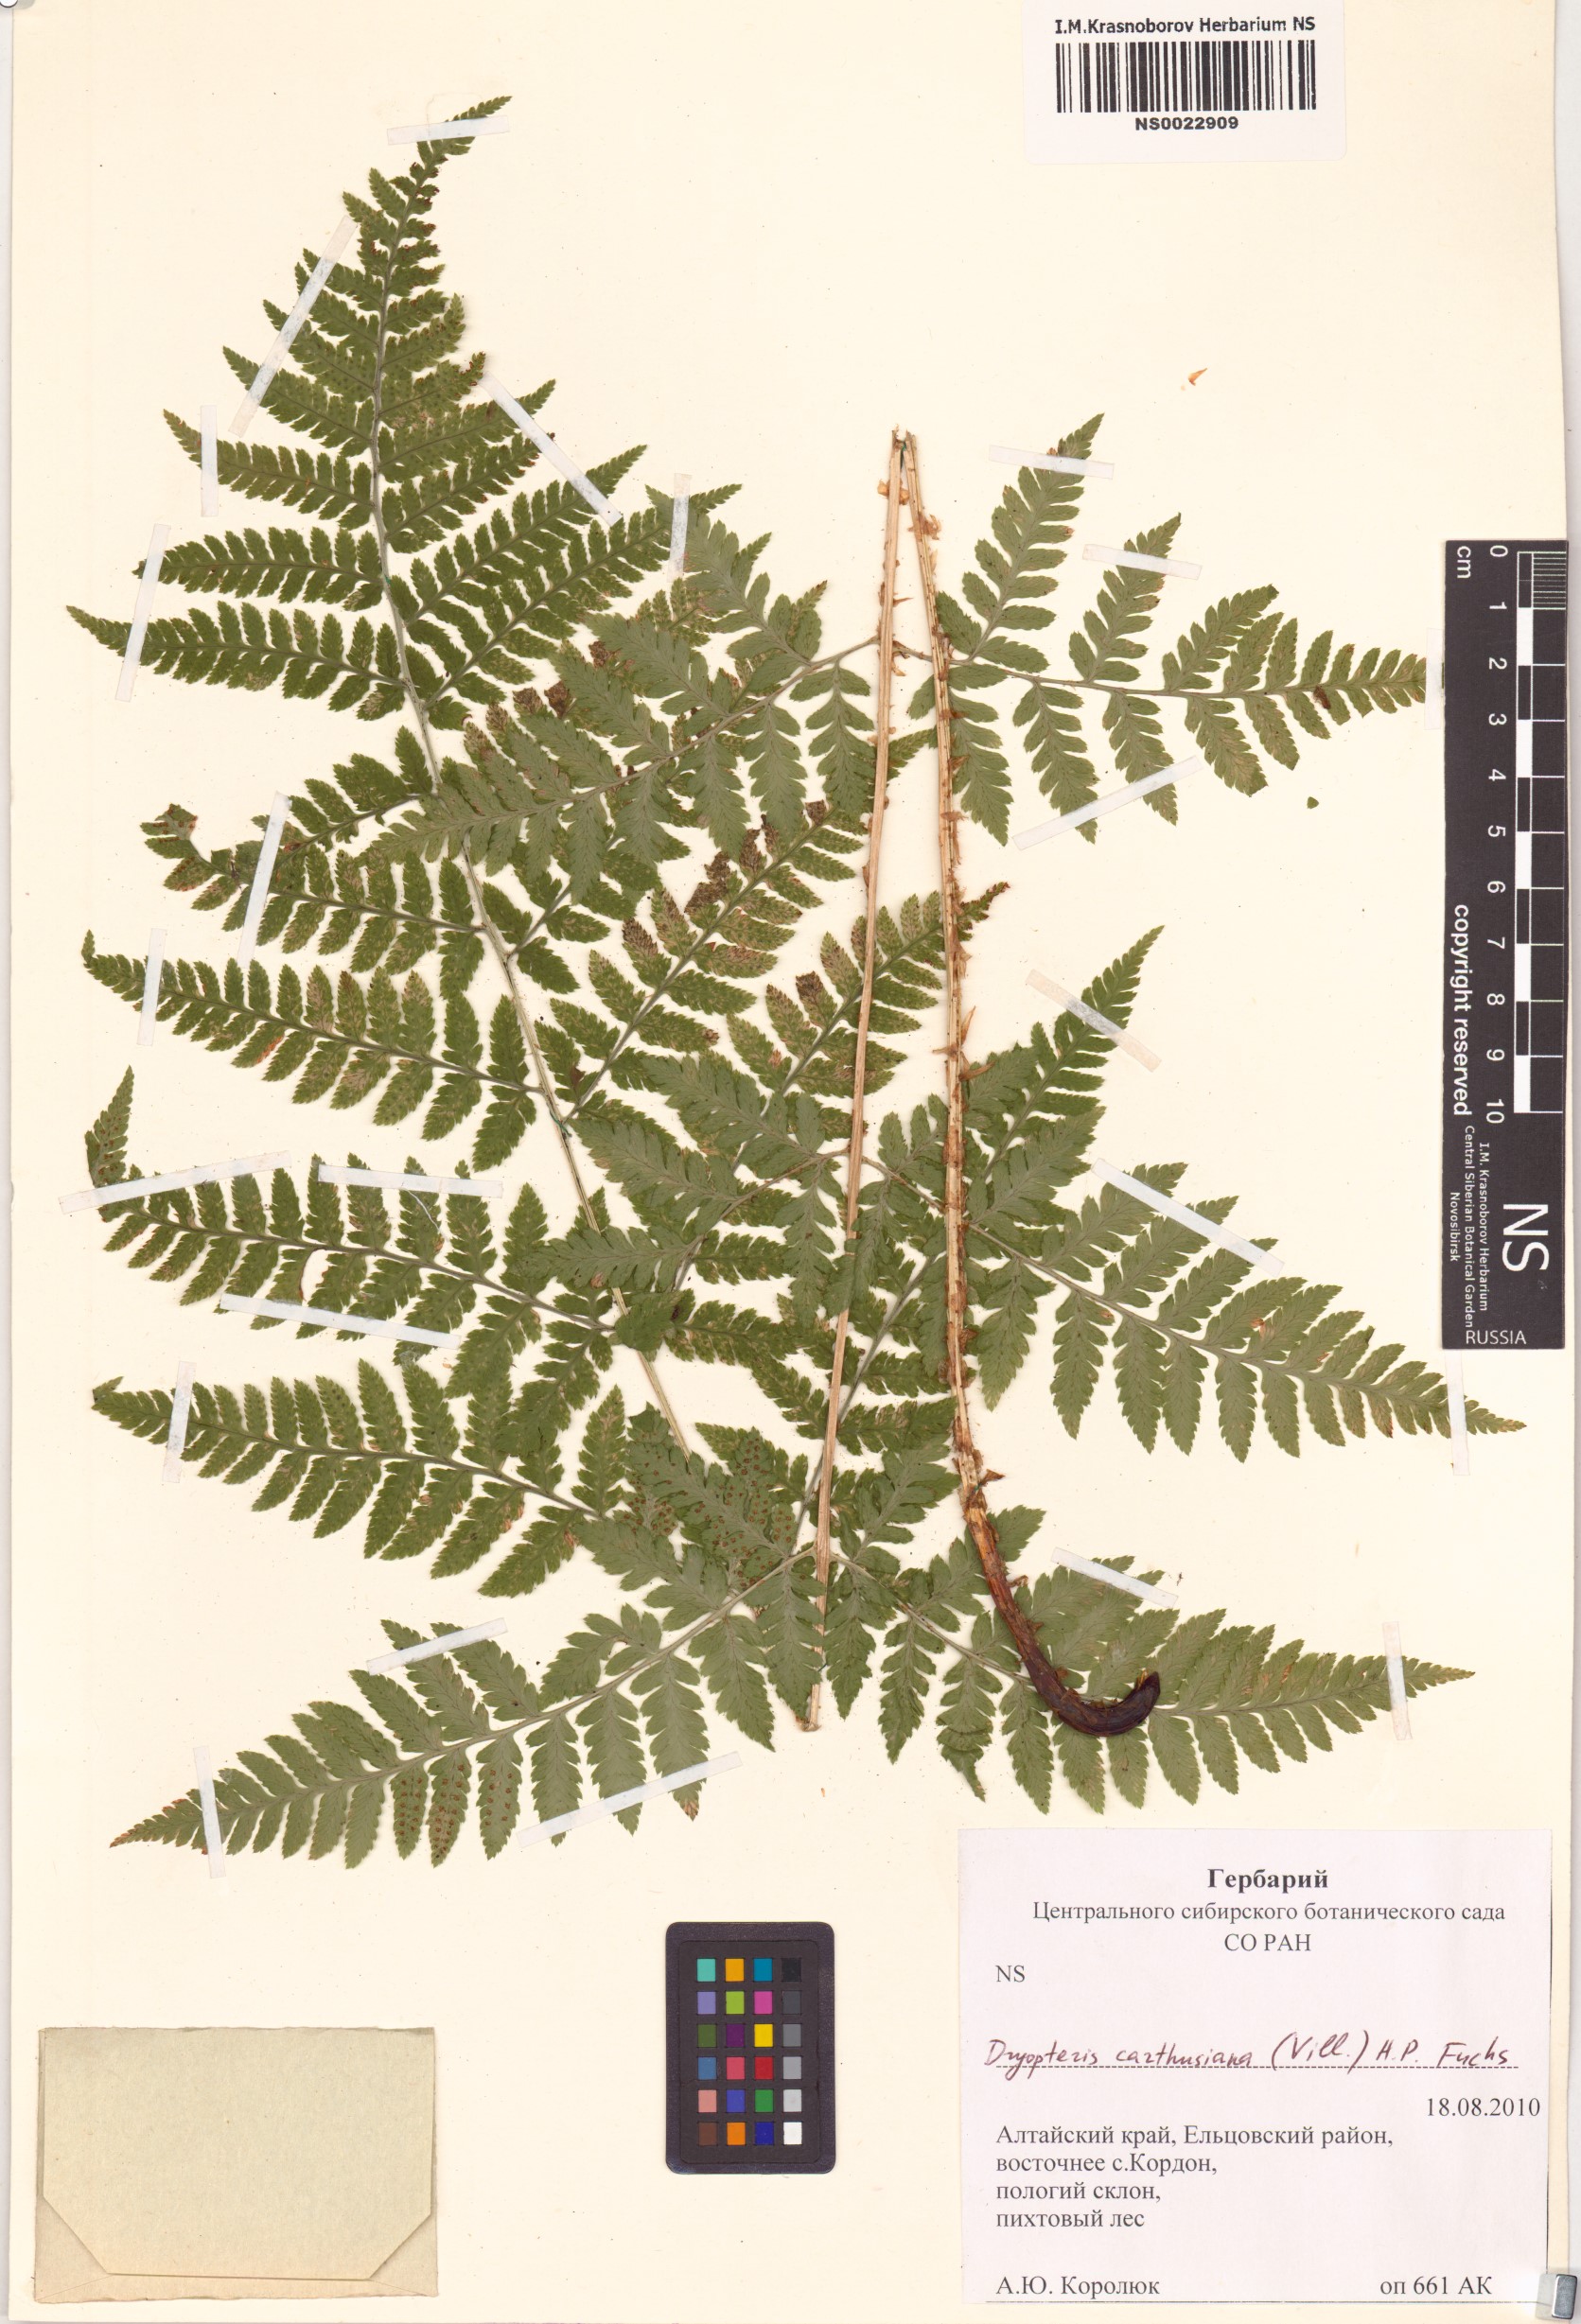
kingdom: Plantae
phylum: Tracheophyta
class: Polypodiopsida
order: Polypodiales
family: Dryopteridaceae
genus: Dryopteris
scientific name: Dryopteris carthusiana
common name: Narrow buckler-fern
